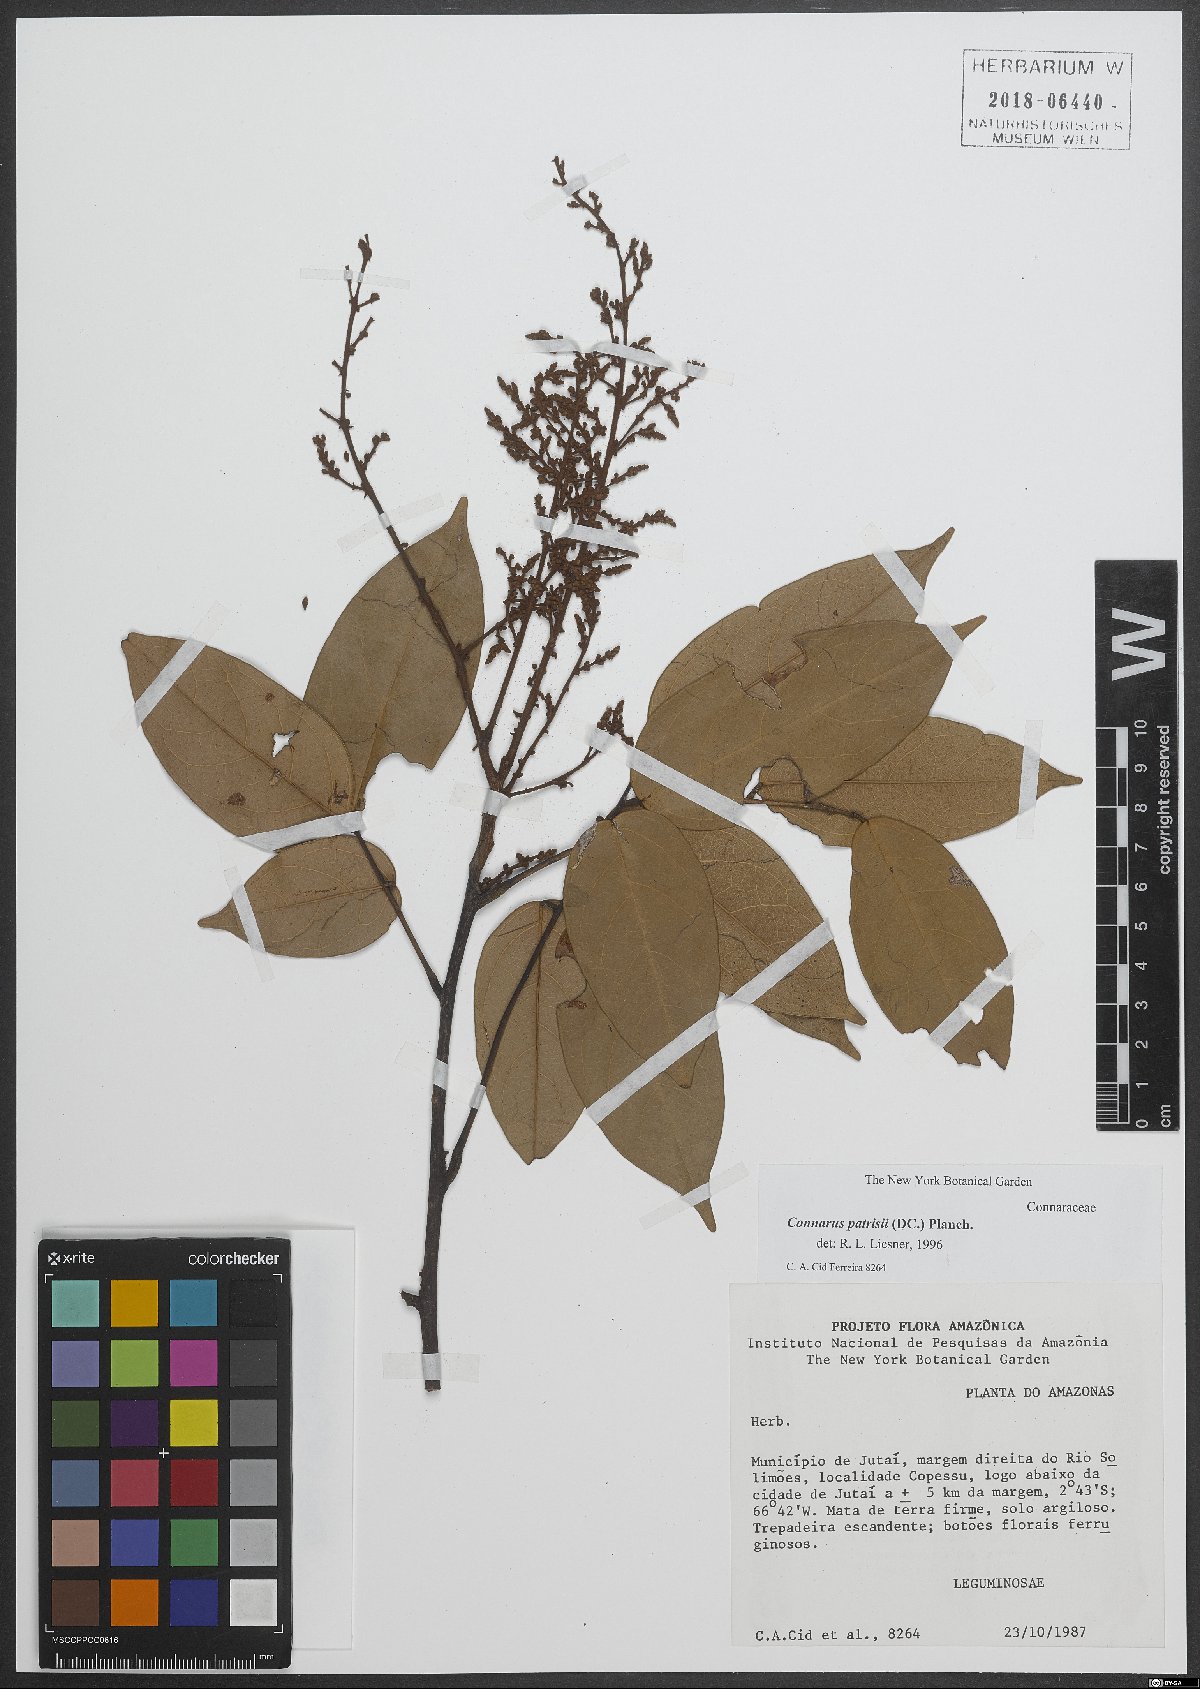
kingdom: Plantae
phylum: Tracheophyta
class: Magnoliopsida
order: Oxalidales
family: Connaraceae
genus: Connarus
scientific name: Connarus patrisii
